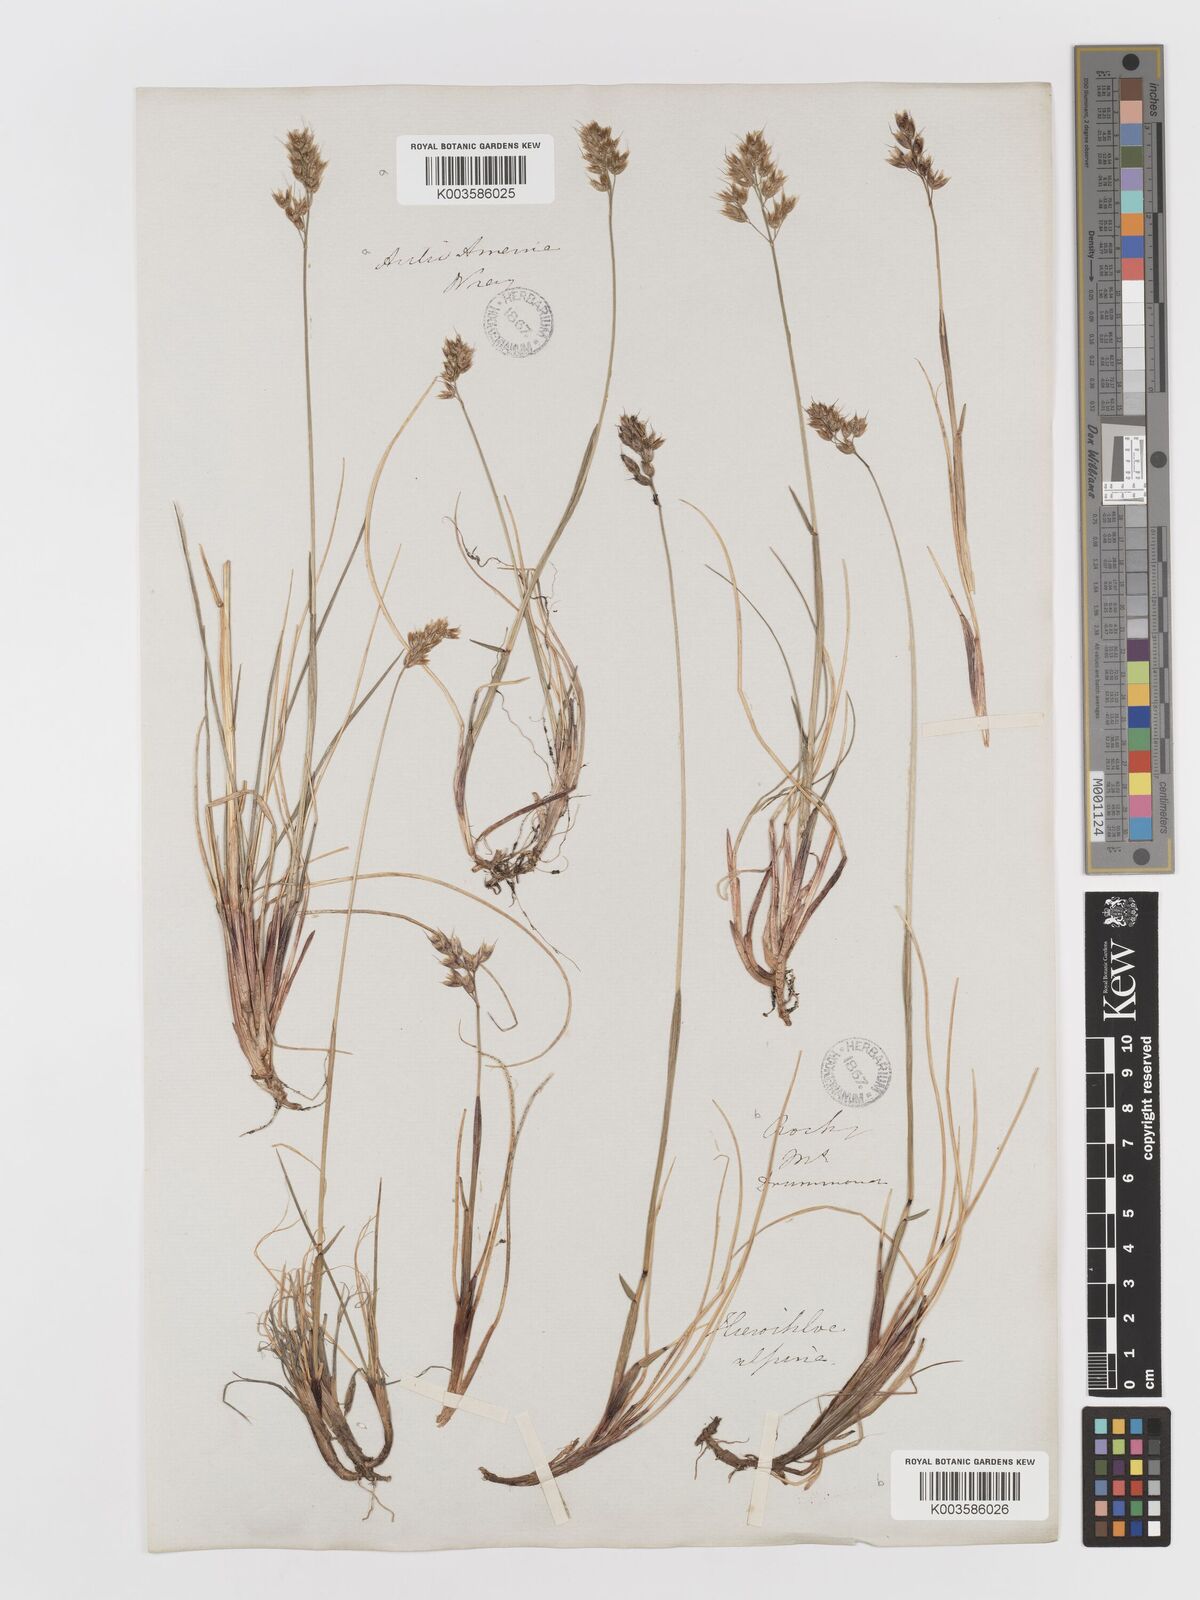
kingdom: Plantae
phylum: Tracheophyta
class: Liliopsida
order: Poales
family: Poaceae
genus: Anthoxanthum
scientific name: Anthoxanthum monticola
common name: Alpine sweetgrass
